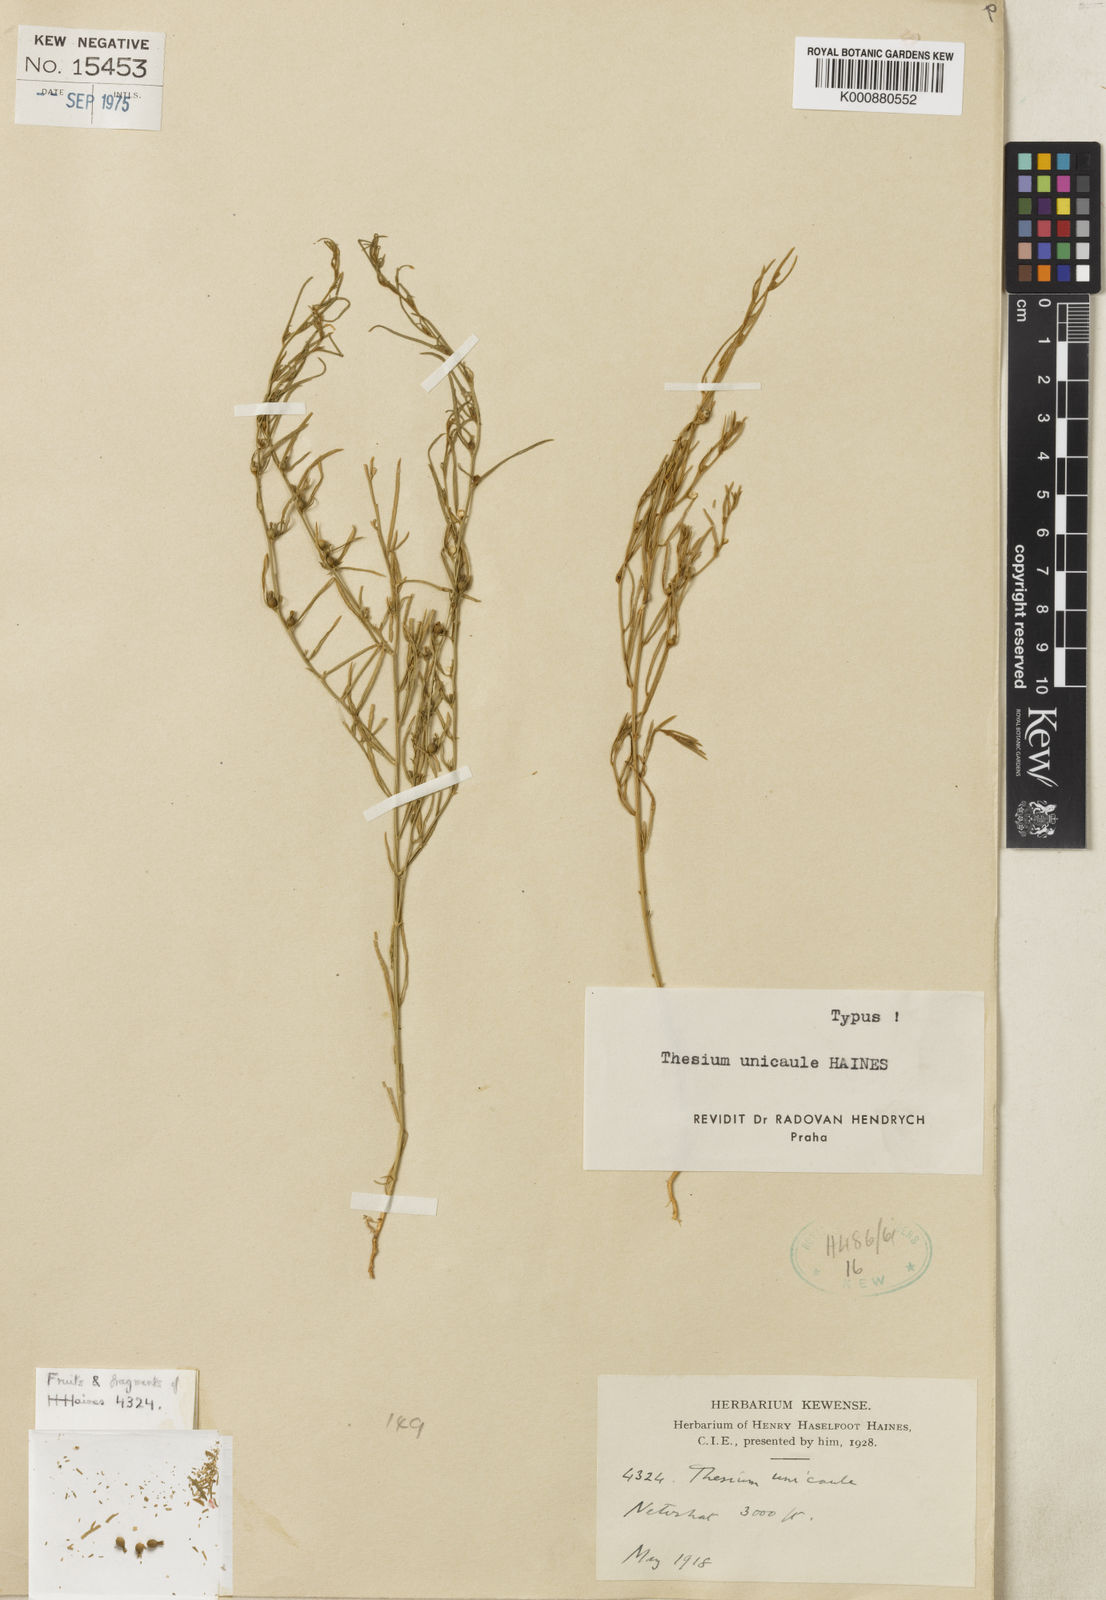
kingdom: Plantae
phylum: Tracheophyta
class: Magnoliopsida
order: Santalales
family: Thesiaceae
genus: Thesium
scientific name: Thesium unicaule
